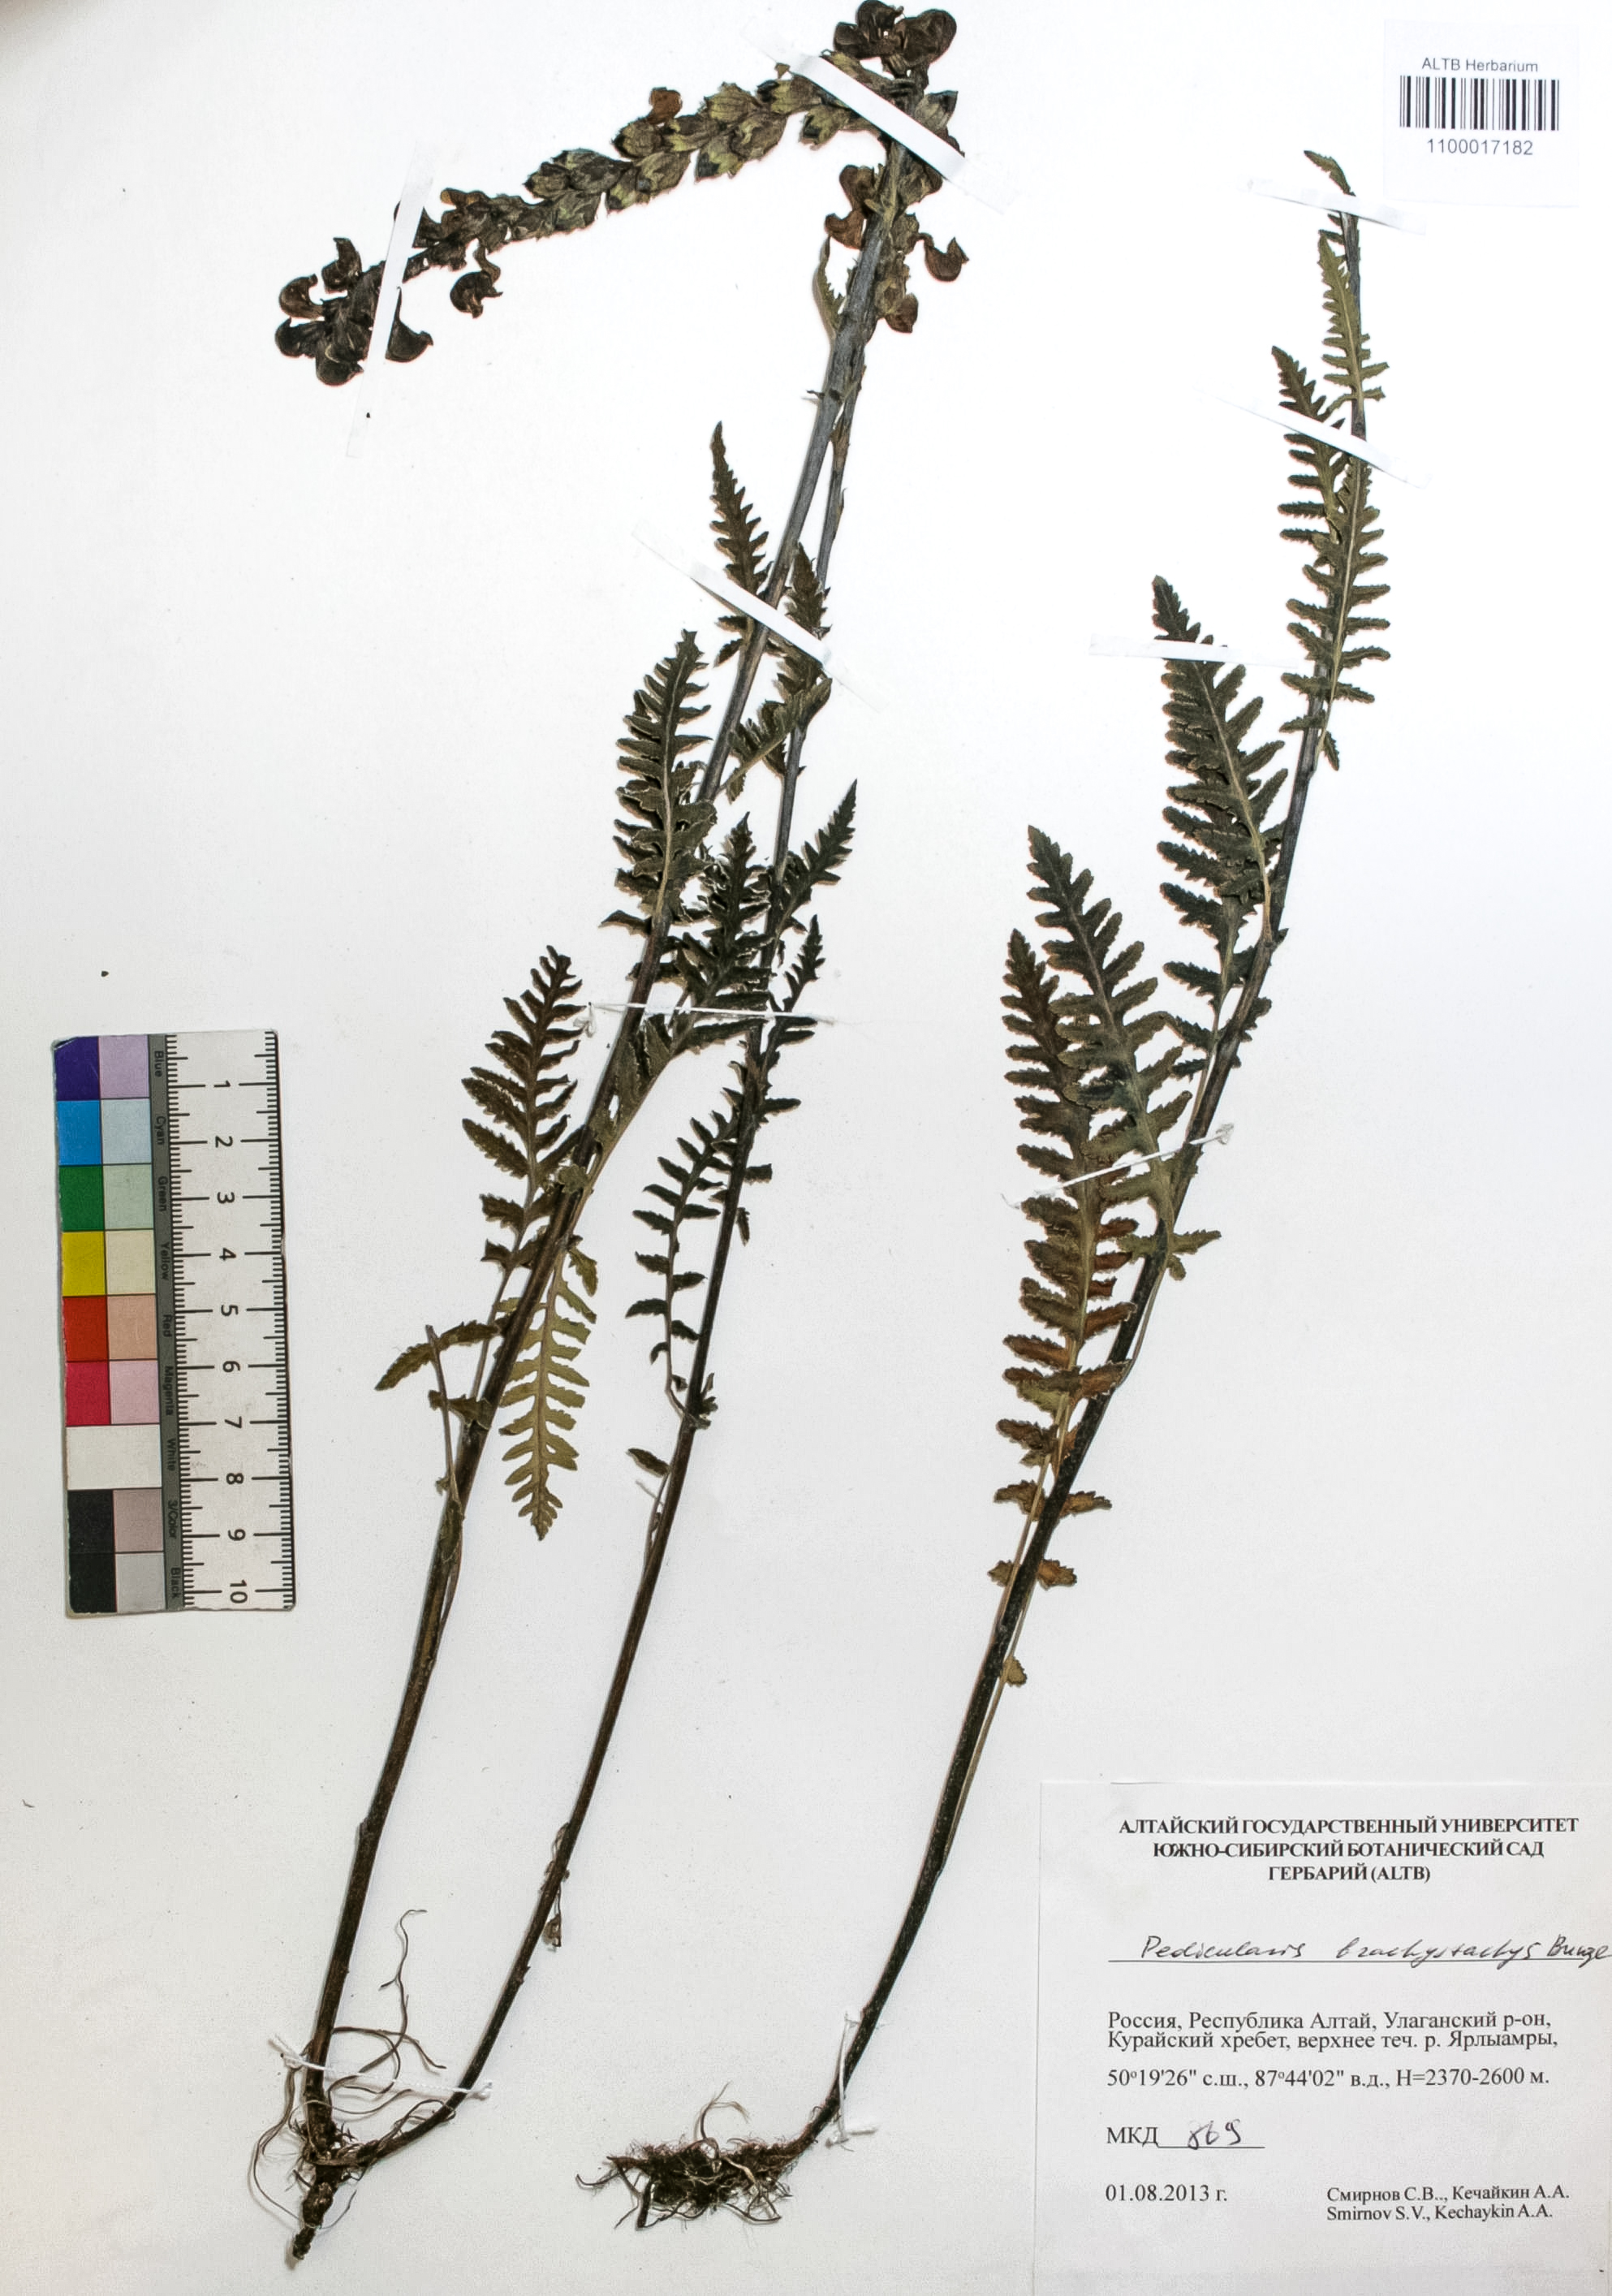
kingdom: Plantae
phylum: Tracheophyta
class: Magnoliopsida
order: Lamiales
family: Orobanchaceae
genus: Pedicularis
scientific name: Pedicularis brachystachys
